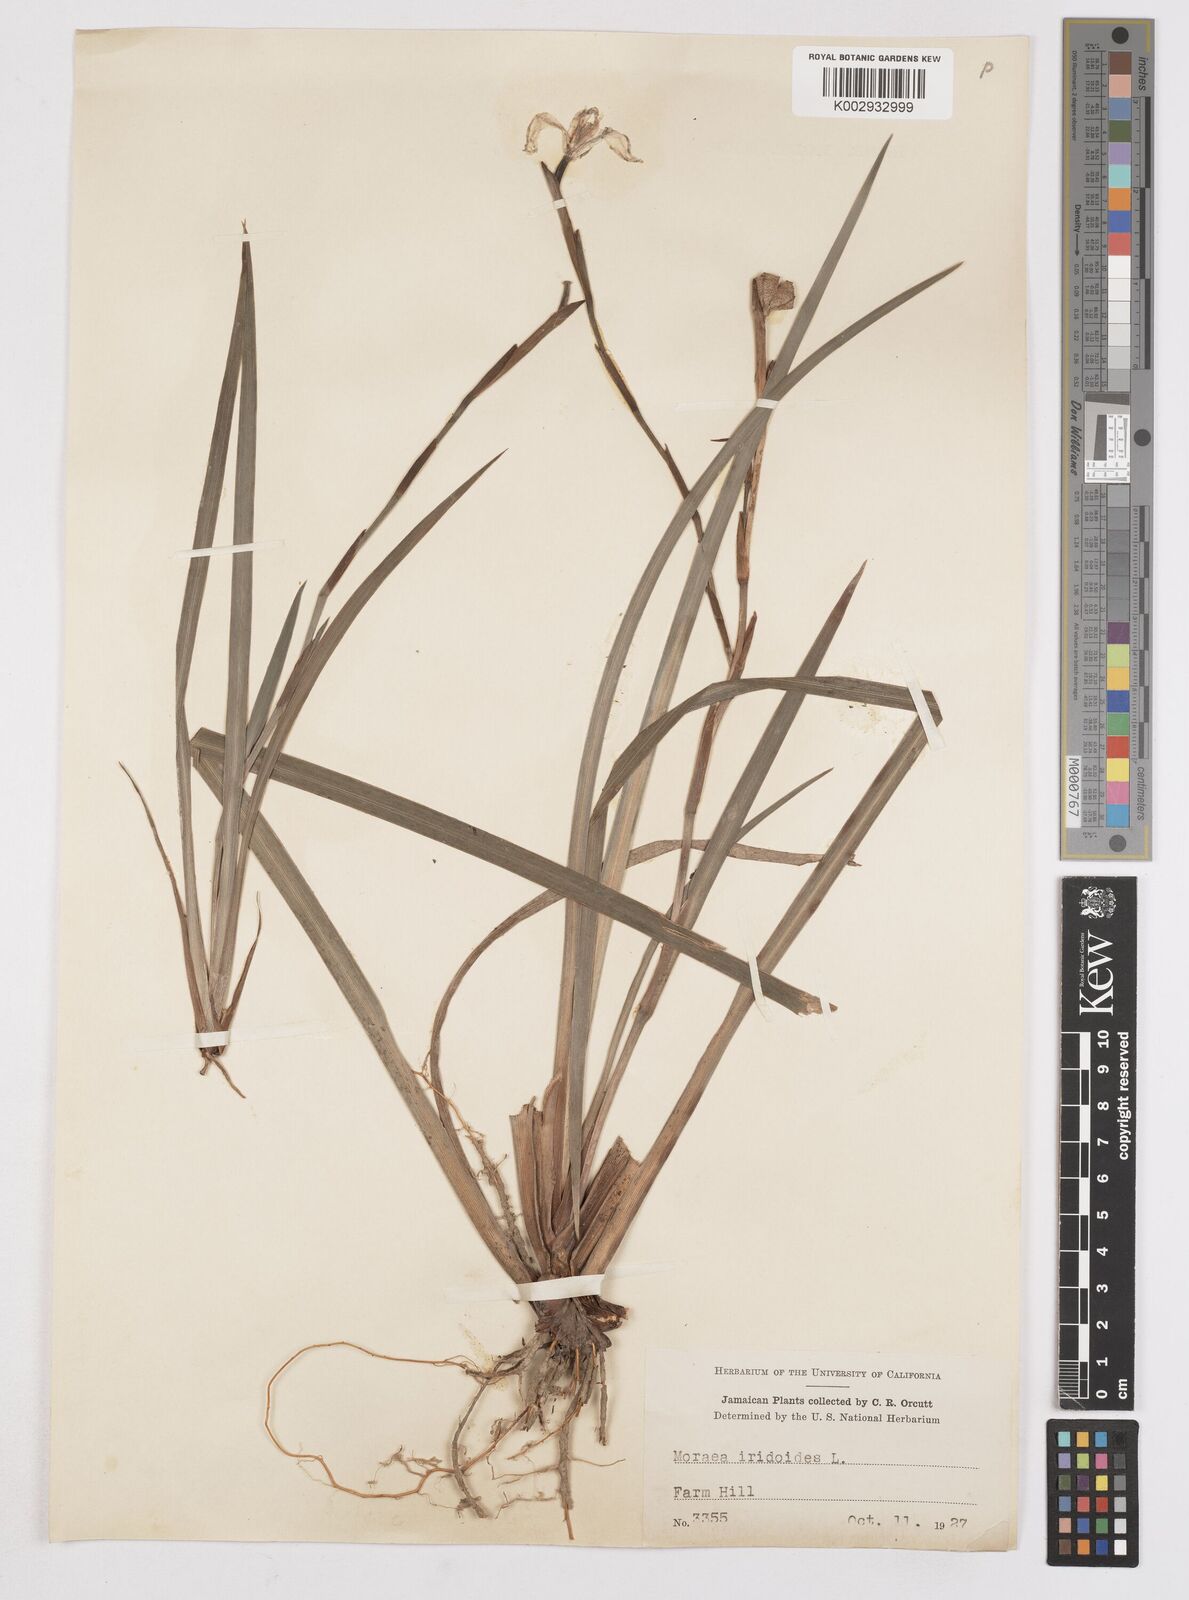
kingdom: Plantae
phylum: Tracheophyta
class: Liliopsida
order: Asparagales
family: Iridaceae
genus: Dietes
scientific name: Dietes iridioides
